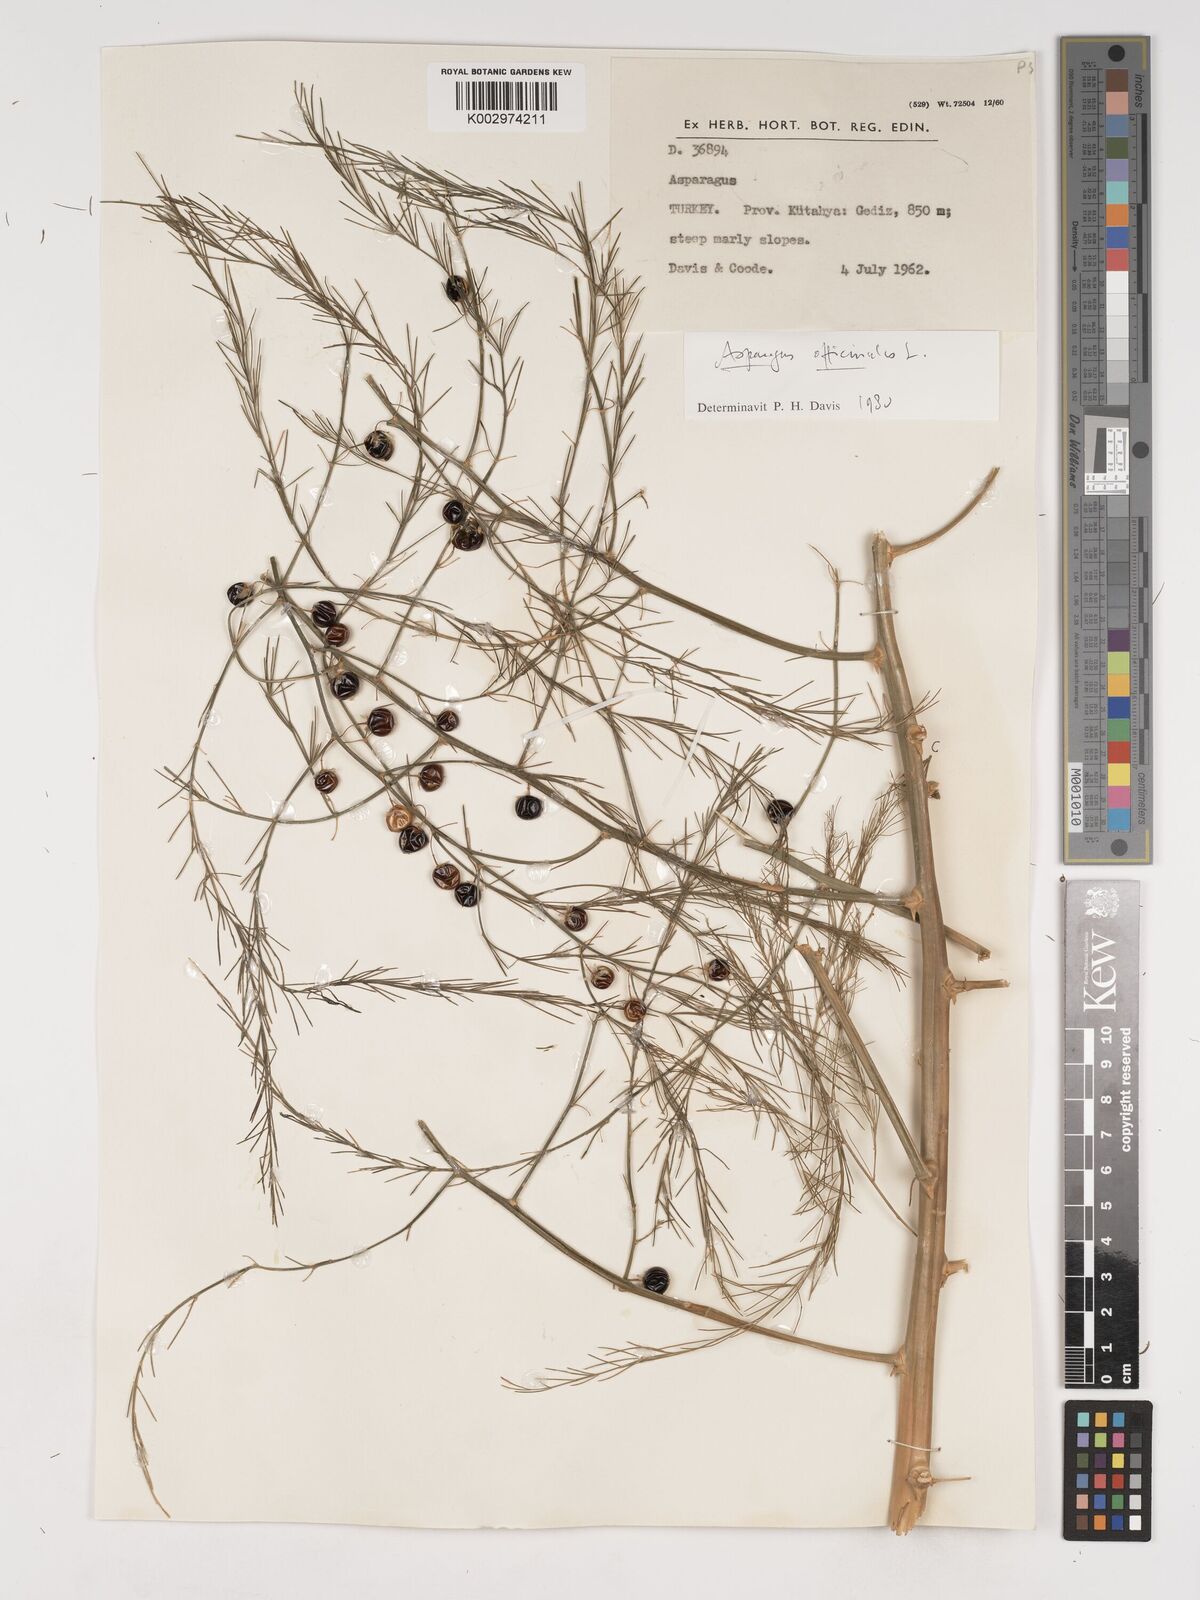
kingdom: Plantae
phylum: Tracheophyta
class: Liliopsida
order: Asparagales
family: Asparagaceae
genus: Asparagus
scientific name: Asparagus officinalis
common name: Garden asparagus
